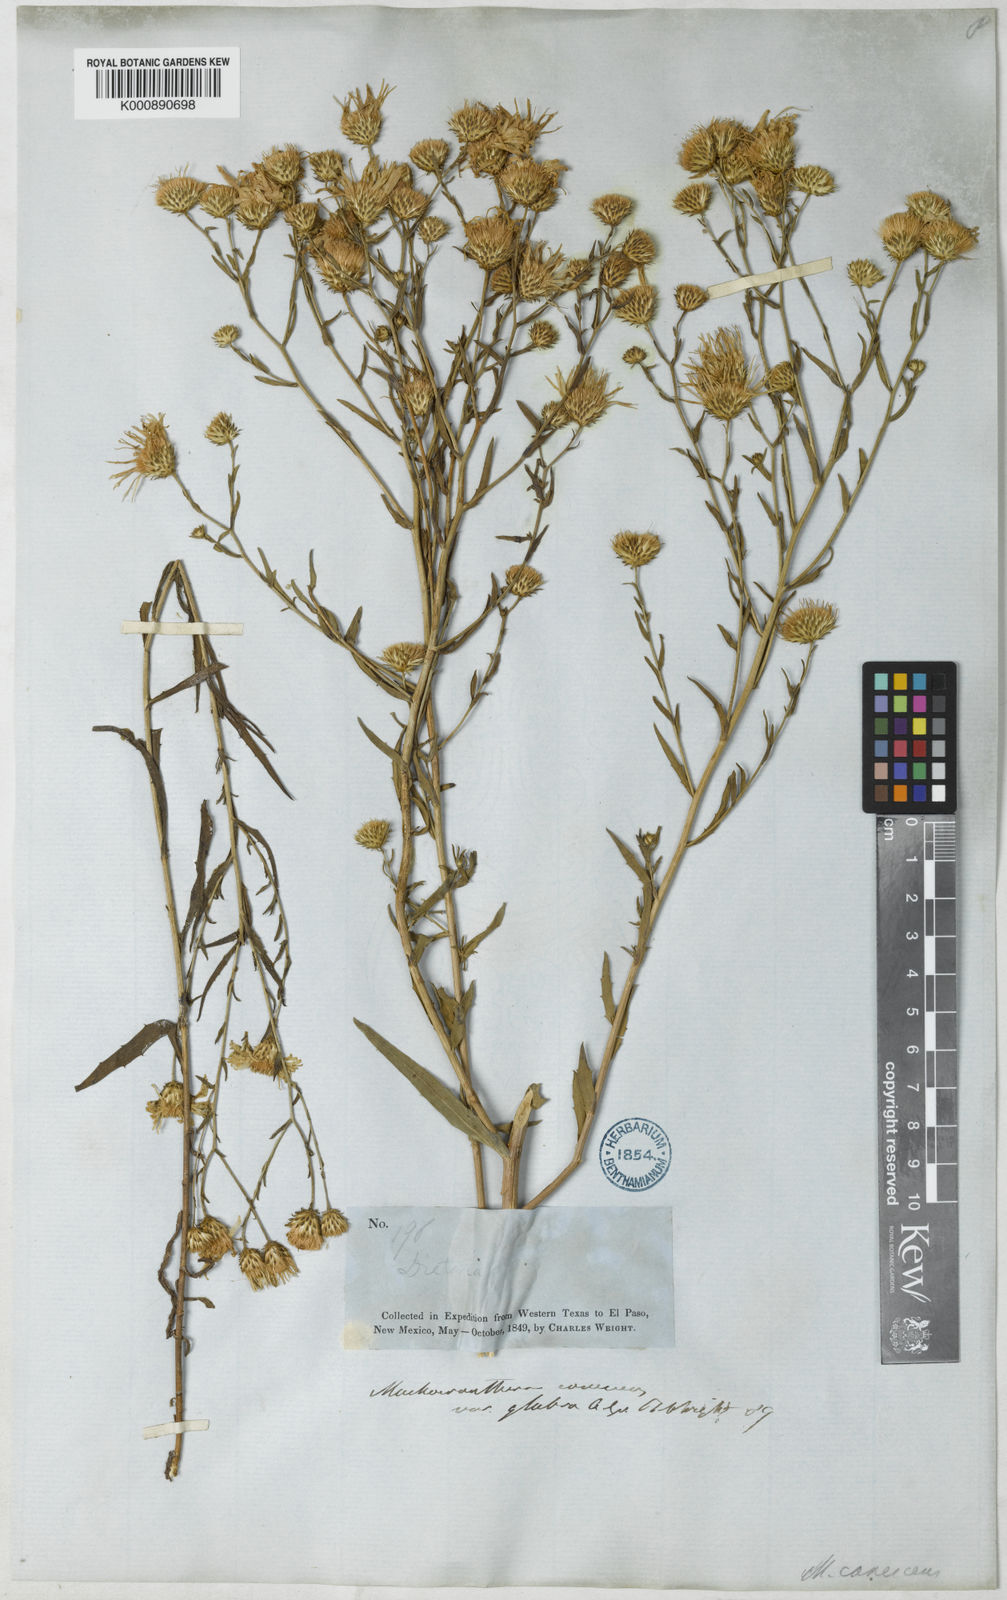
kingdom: Plantae
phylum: Tracheophyta
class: Magnoliopsida
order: Asterales
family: Asteraceae
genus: Dieteria
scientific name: Dieteria canescens
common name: Hoary-aster
